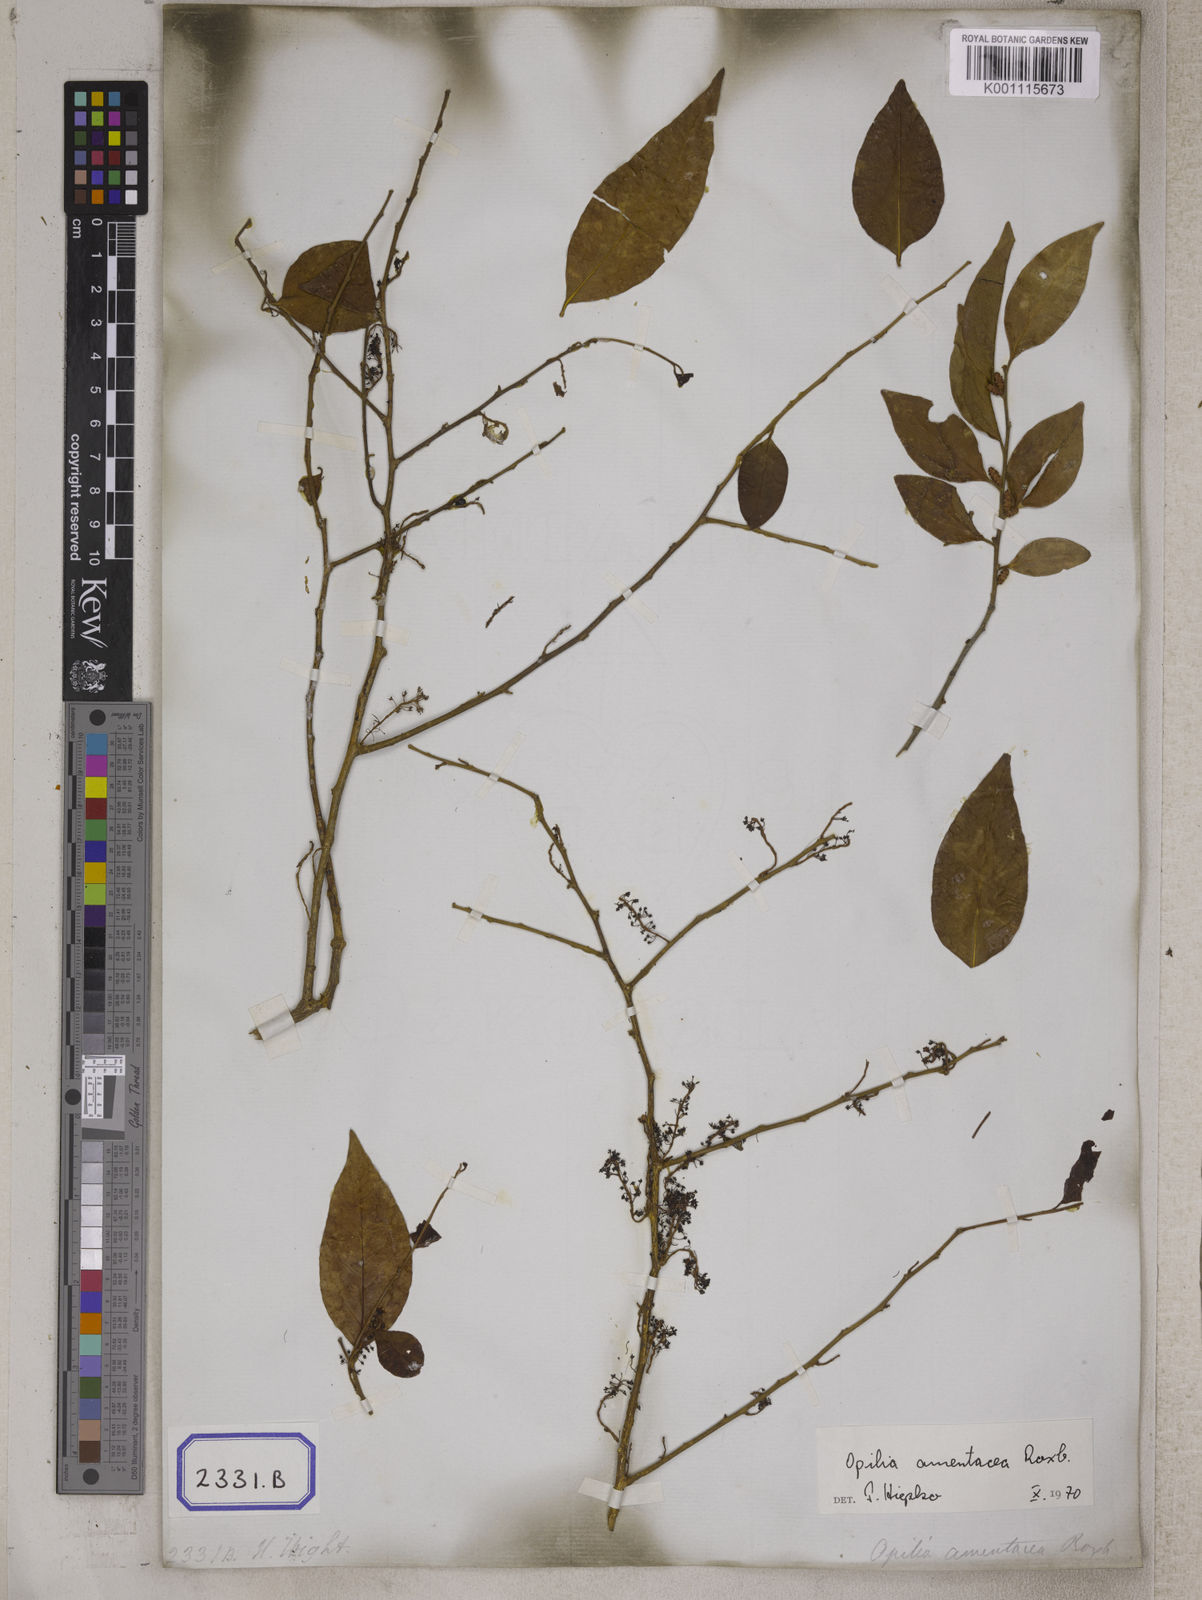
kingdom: Plantae
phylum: Tracheophyta
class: Magnoliopsida
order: Santalales
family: Opiliaceae
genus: Opilia
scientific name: Opilia amentacea
